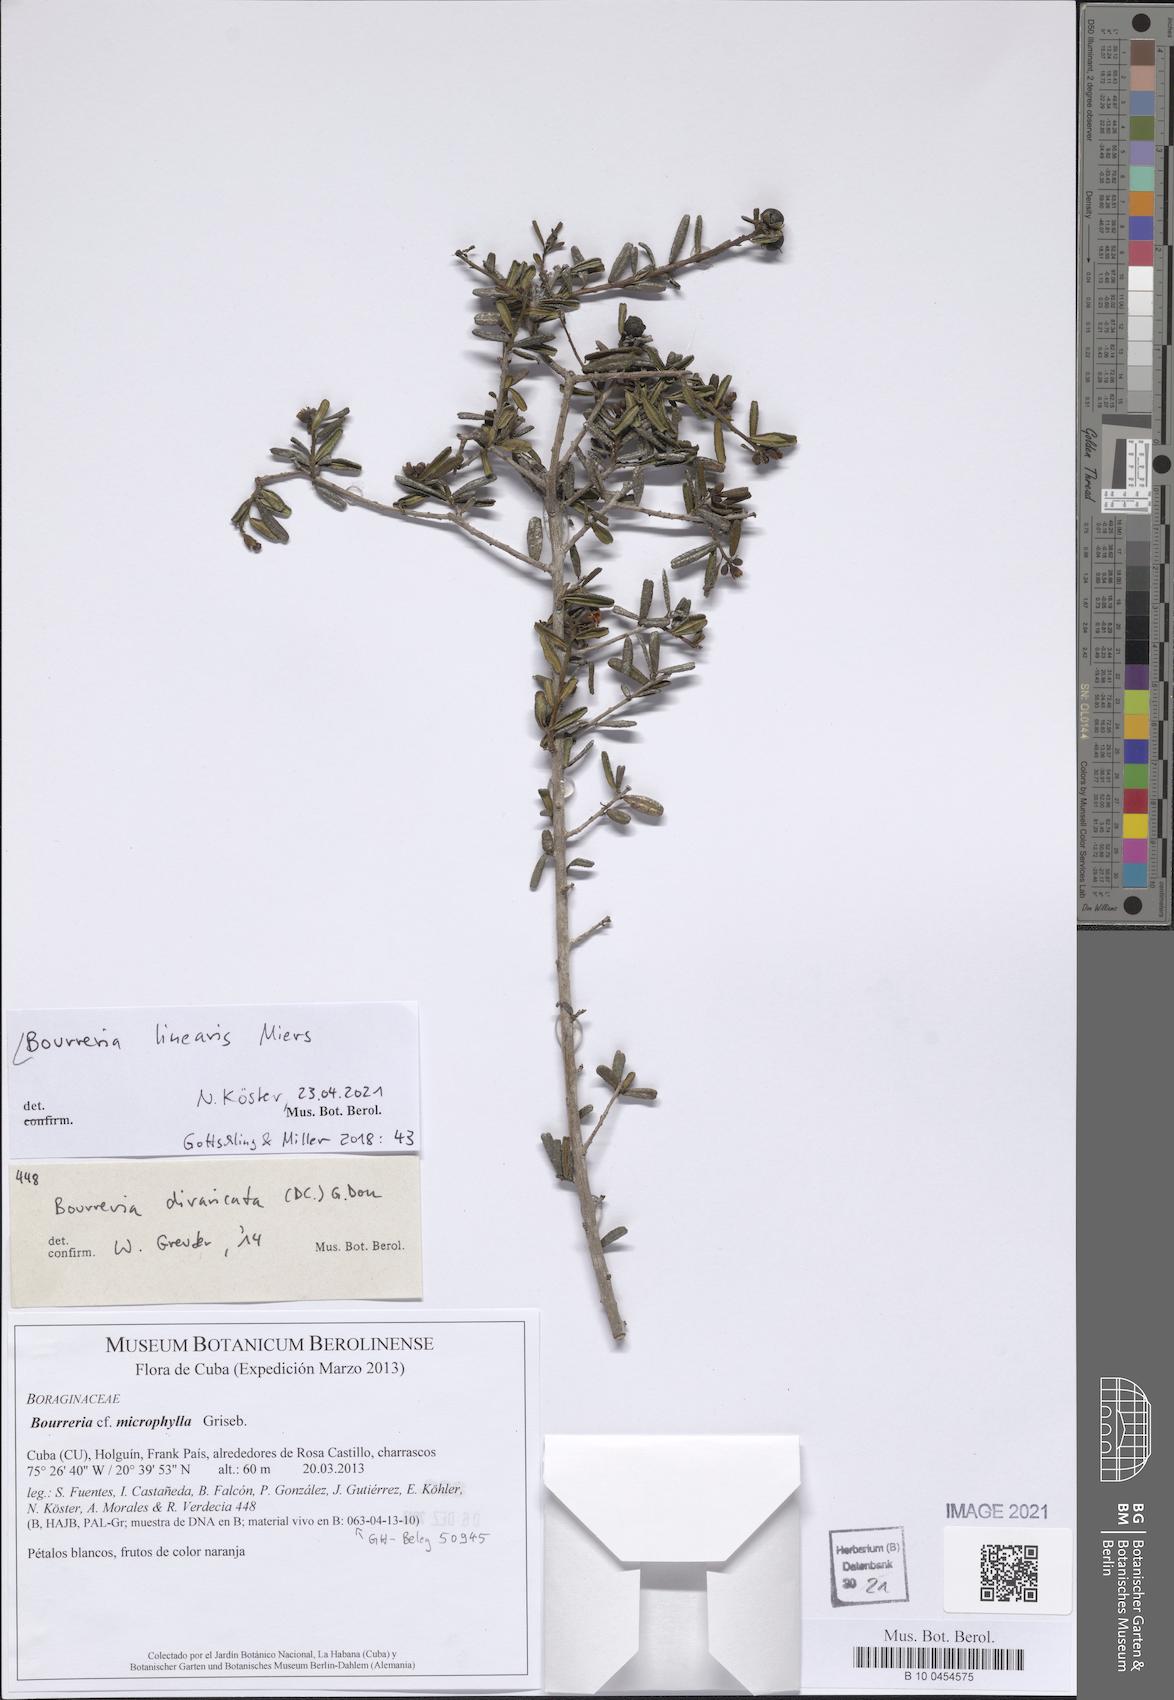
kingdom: Plantae
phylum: Tracheophyta
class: Magnoliopsida
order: Boraginales
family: Ehretiaceae
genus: Bourreria
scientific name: Bourreria linearis
